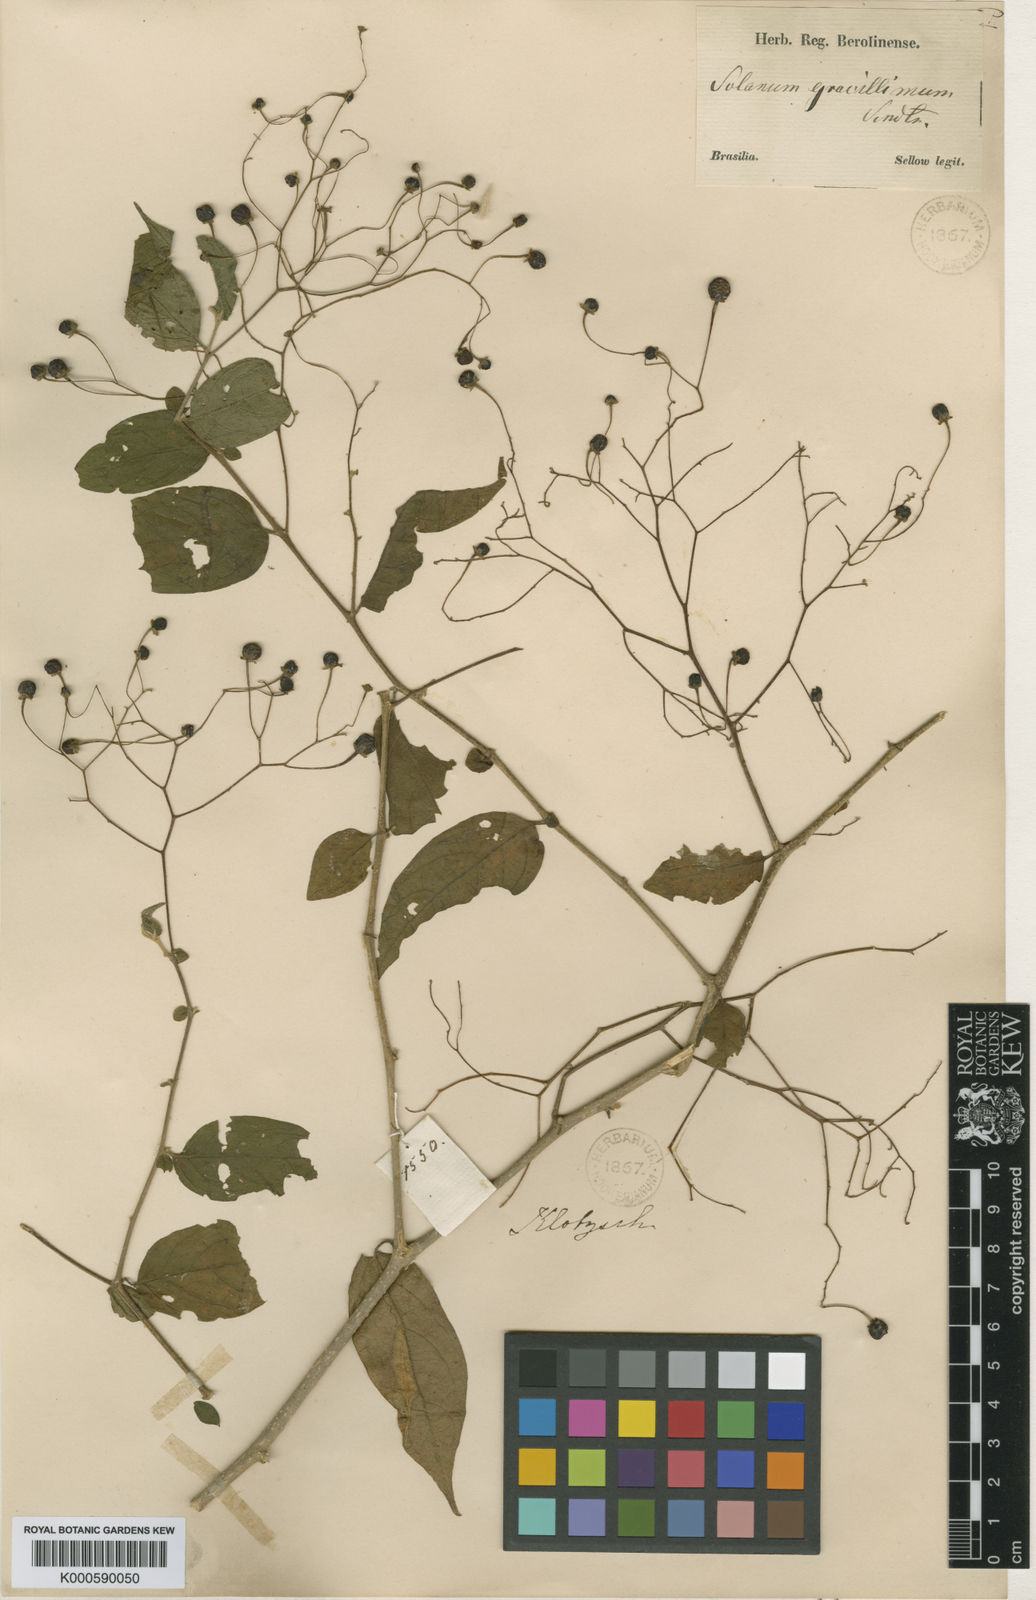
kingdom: Plantae
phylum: Tracheophyta
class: Magnoliopsida
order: Solanales
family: Solanaceae
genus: Solanum
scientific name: Solanum hirtellum
